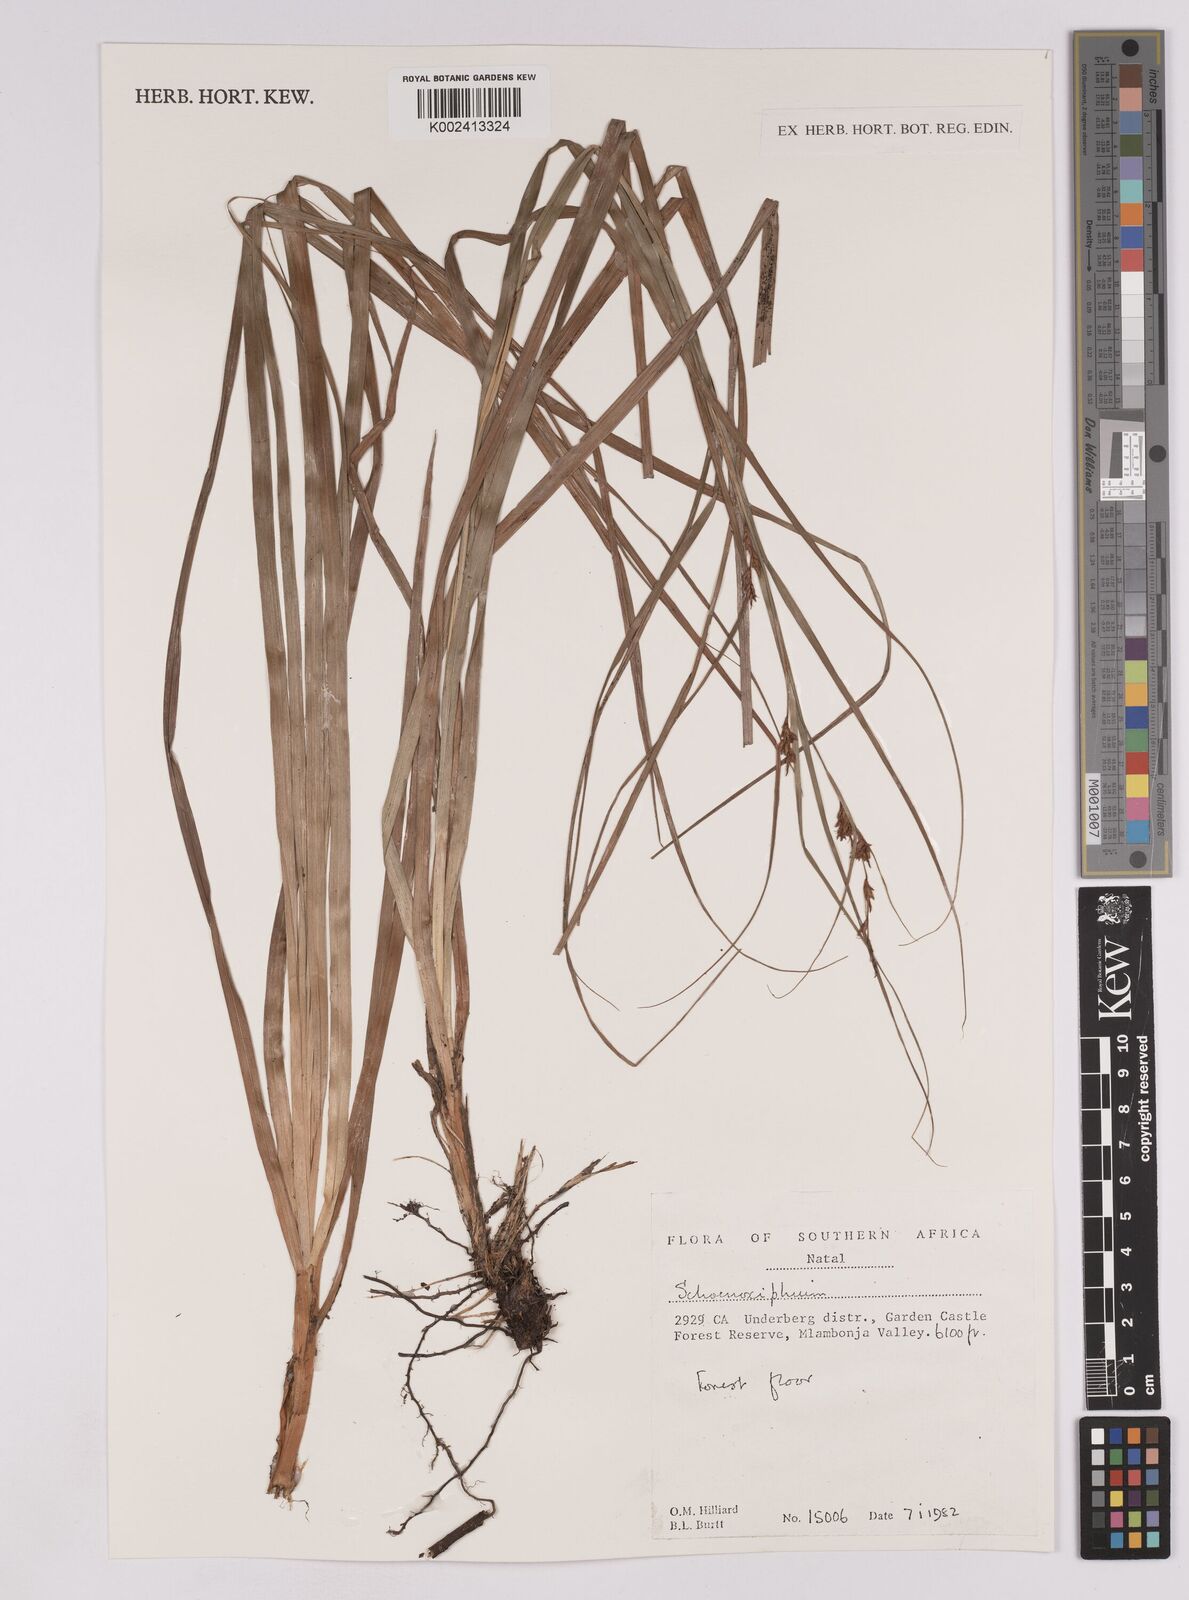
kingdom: Plantae
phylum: Tracheophyta
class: Liliopsida
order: Poales
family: Cyperaceae
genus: Carex
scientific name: Carex
